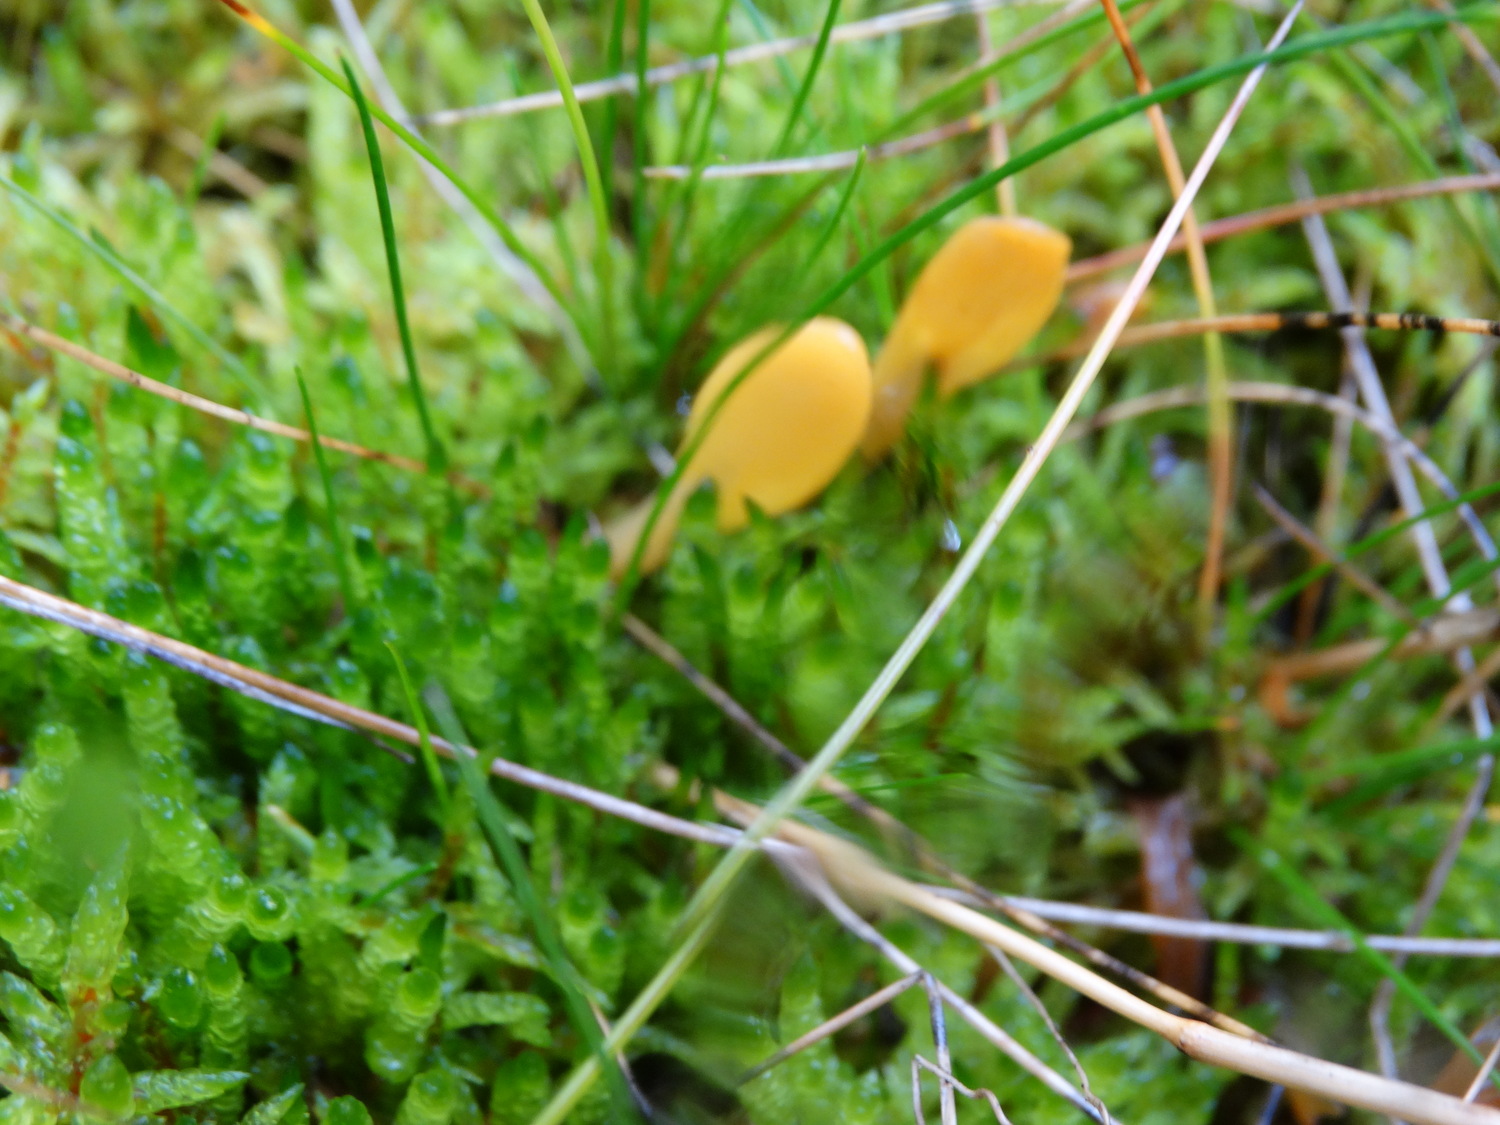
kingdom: Fungi
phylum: Ascomycota
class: Leotiomycetes
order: Rhytismatales
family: Cudoniaceae
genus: Spathularia
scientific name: Spathularia flavida
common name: gul spatelsvamp
